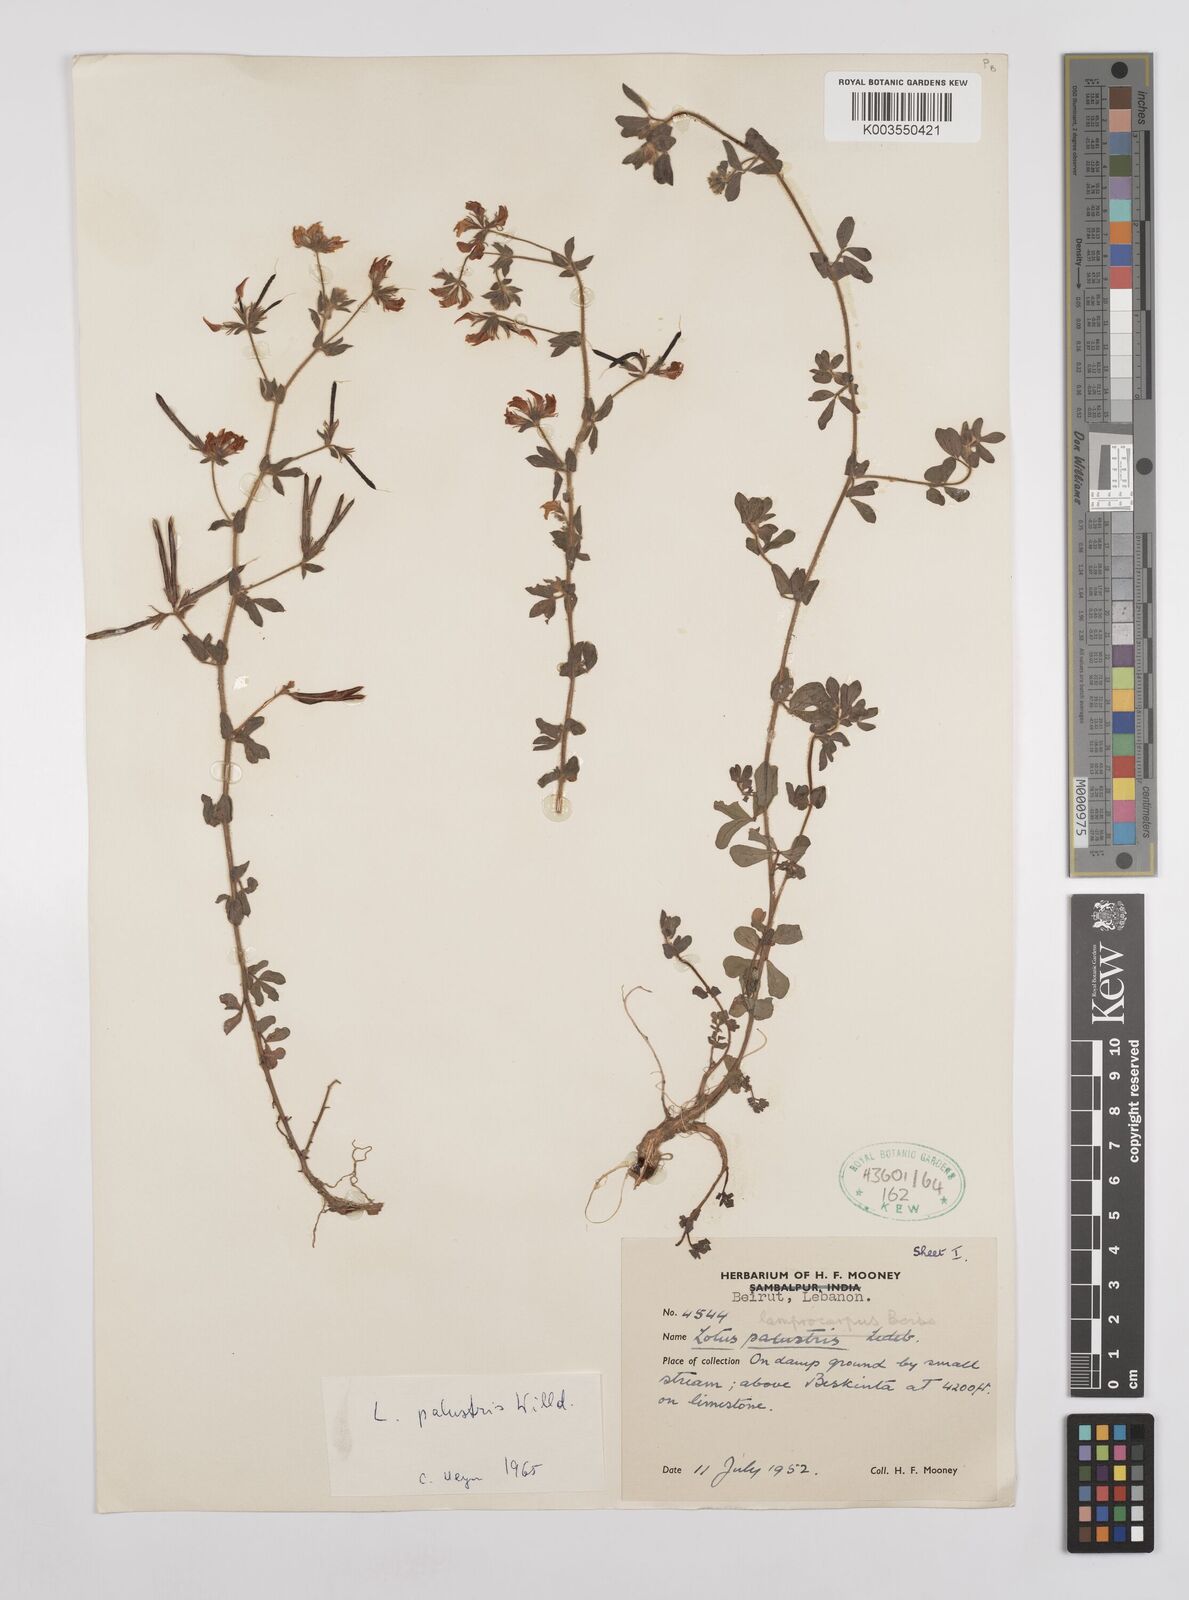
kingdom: Plantae
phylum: Tracheophyta
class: Magnoliopsida
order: Fabales
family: Fabaceae
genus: Lotus
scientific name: Lotus palustris
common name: Large birds-foot trefoil
